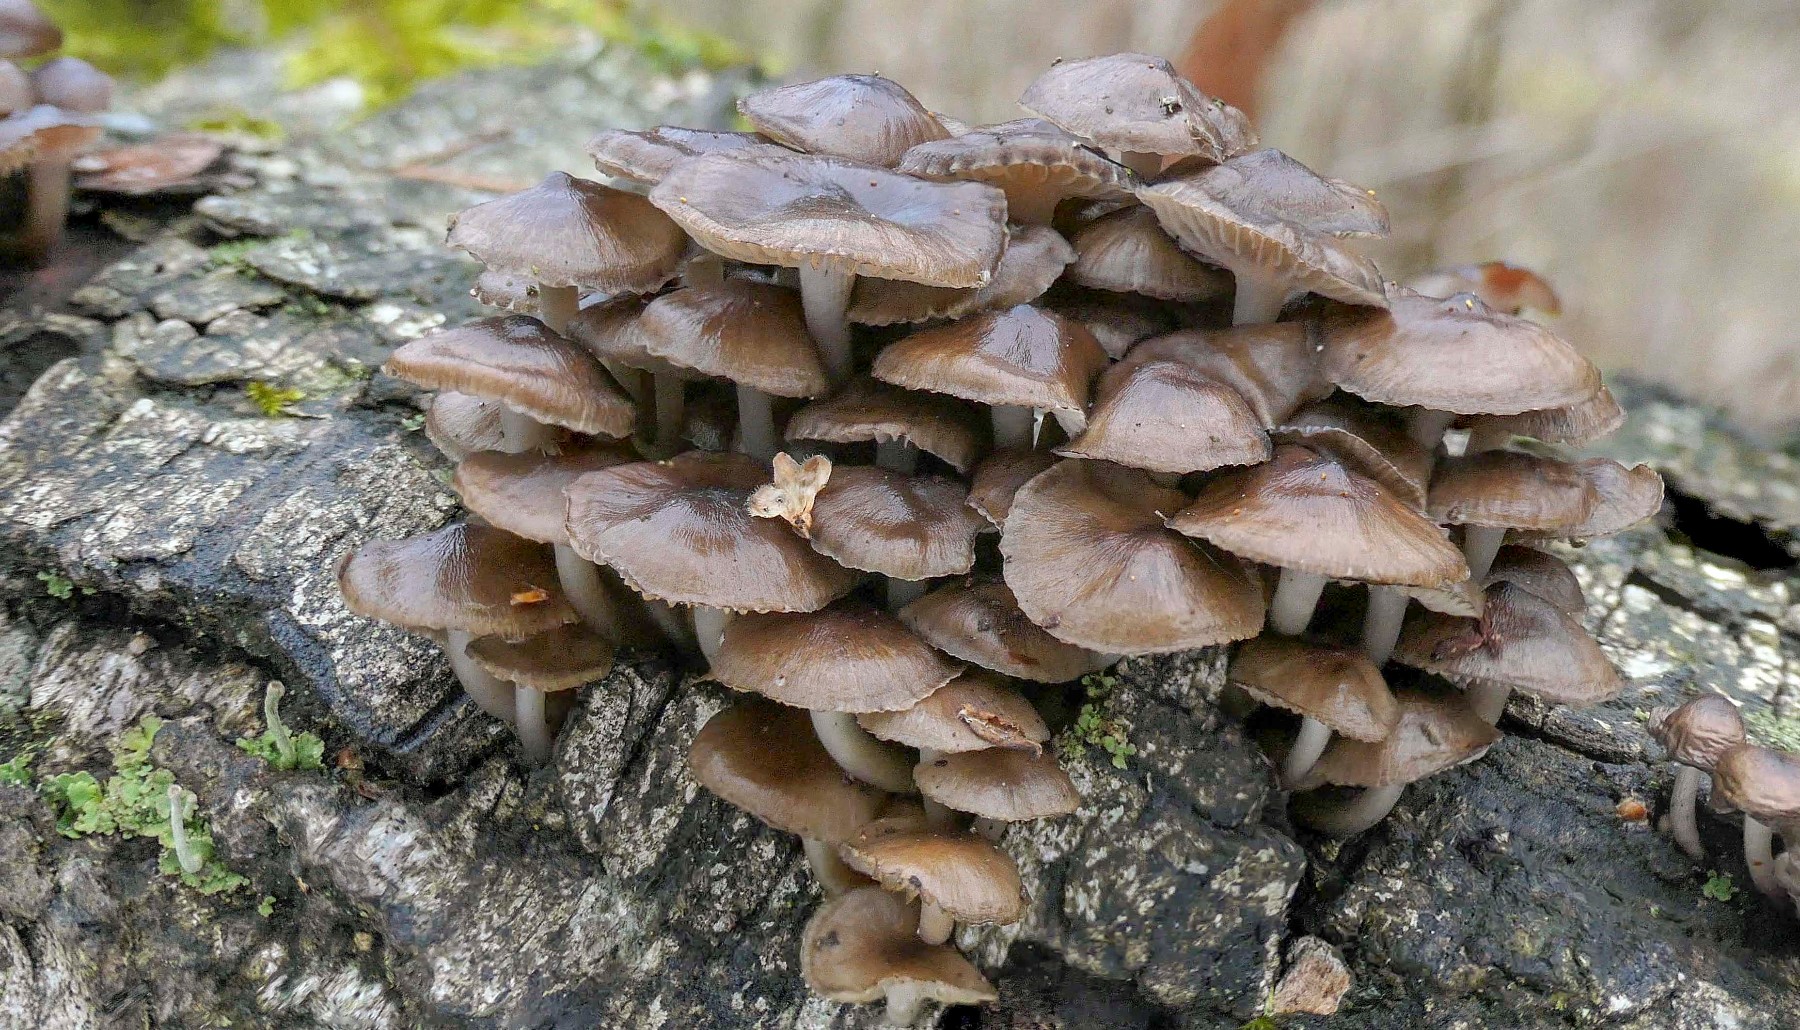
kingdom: Fungi
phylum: Basidiomycota
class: Agaricomycetes
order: Agaricales
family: Mycenaceae
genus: Mycena
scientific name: Mycena tintinnabulum
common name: vinter-huesvamp
